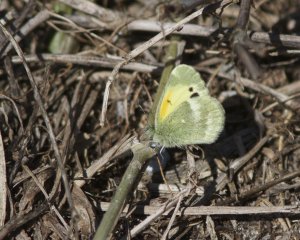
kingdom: Animalia
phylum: Arthropoda
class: Insecta
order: Lepidoptera
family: Pieridae
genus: Nathalis
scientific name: Nathalis iole
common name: Dainty Sulphur
